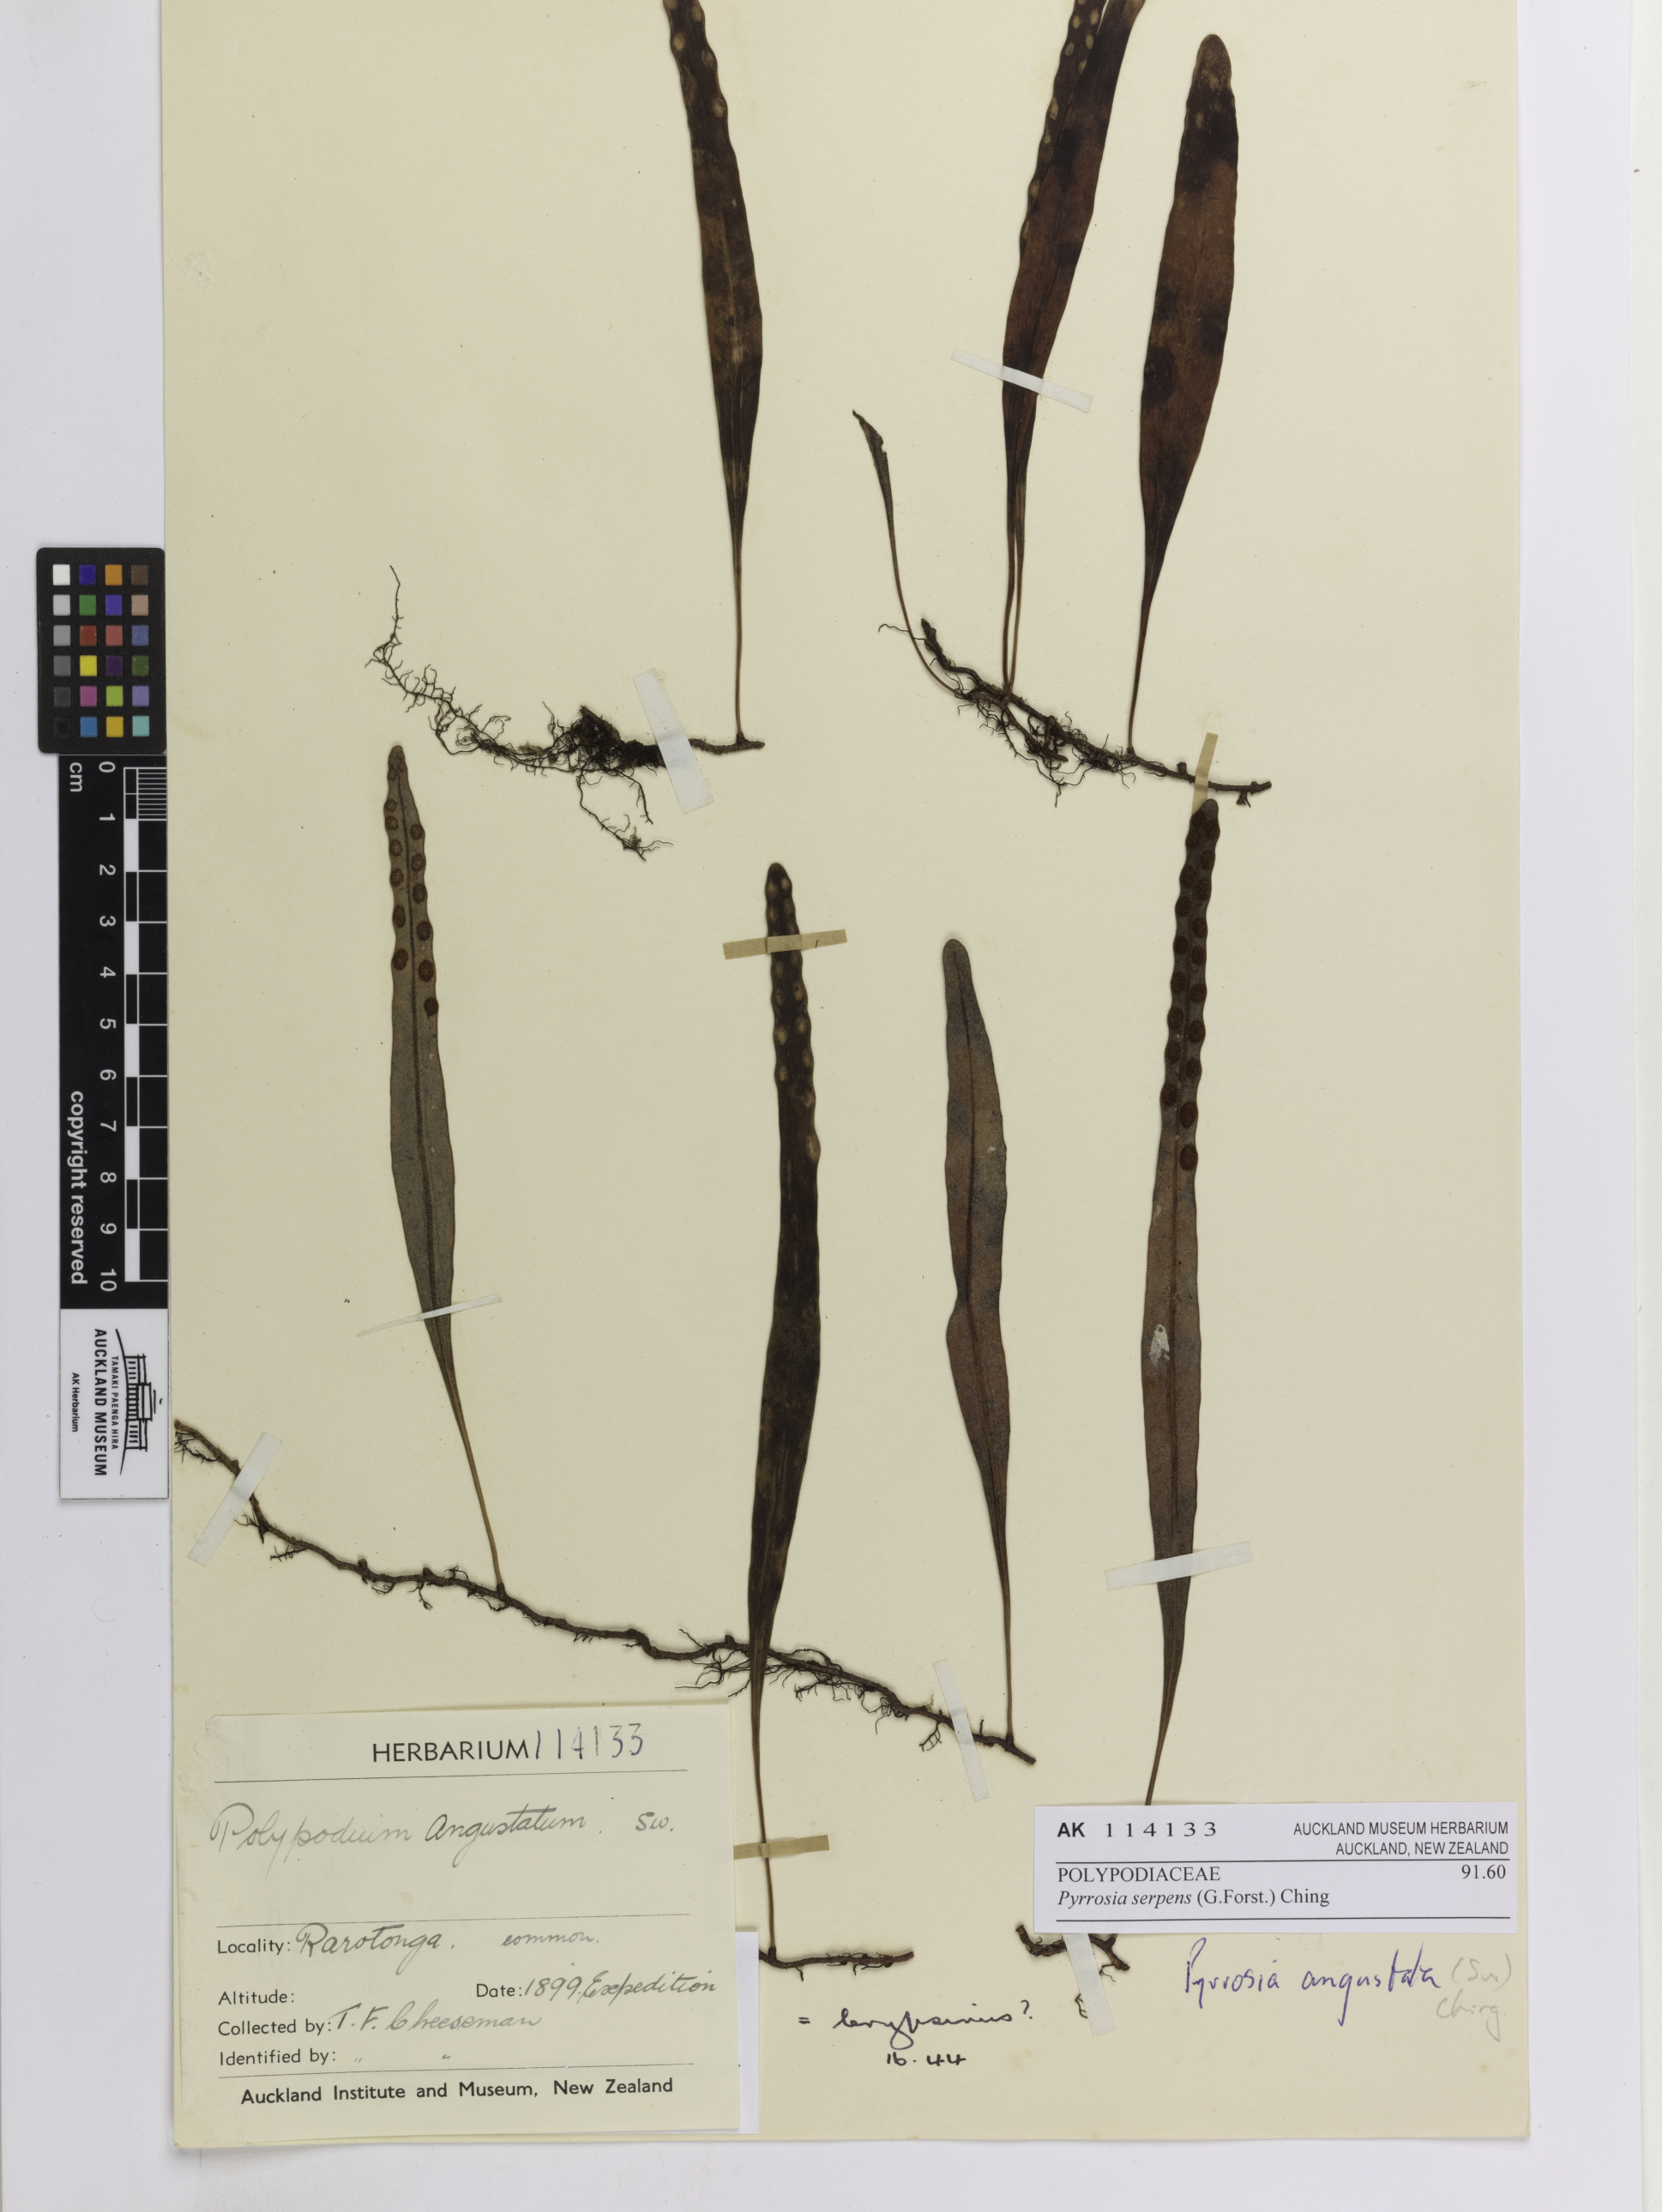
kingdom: Plantae
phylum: Tracheophyta
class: Polypodiopsida
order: Polypodiales
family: Polypodiaceae
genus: Pyrrosia
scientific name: Pyrrosia serpens
